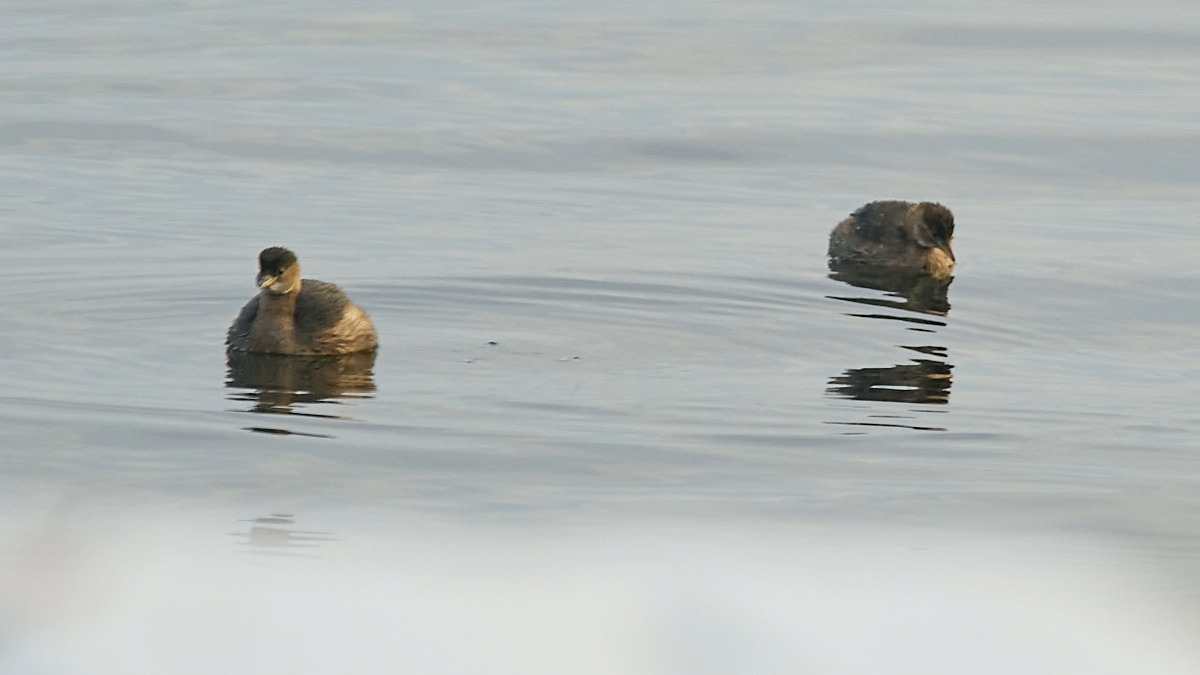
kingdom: Animalia
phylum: Chordata
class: Aves
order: Podicipediformes
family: Podicipedidae
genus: Tachybaptus
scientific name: Tachybaptus ruficollis
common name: Lille lappedykker
